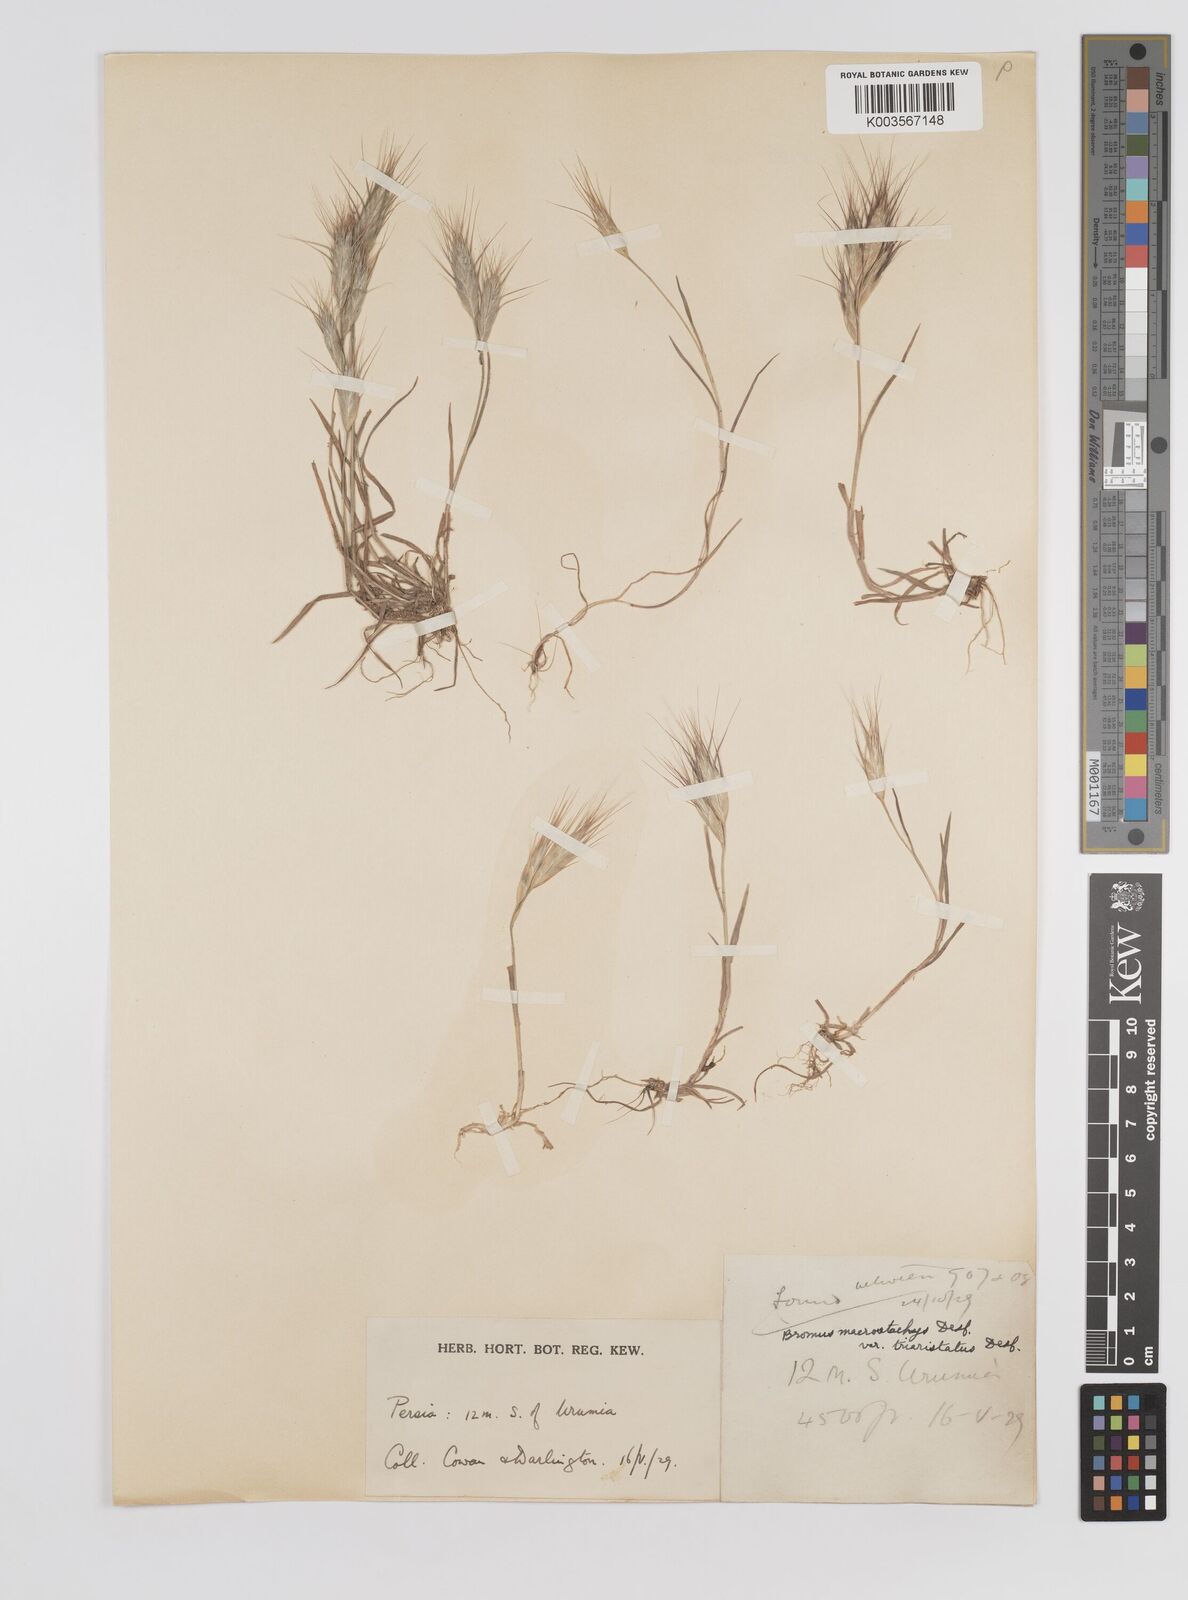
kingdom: Plantae
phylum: Tracheophyta
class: Liliopsida
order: Poales
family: Poaceae
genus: Bromus
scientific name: Bromus danthoniae
